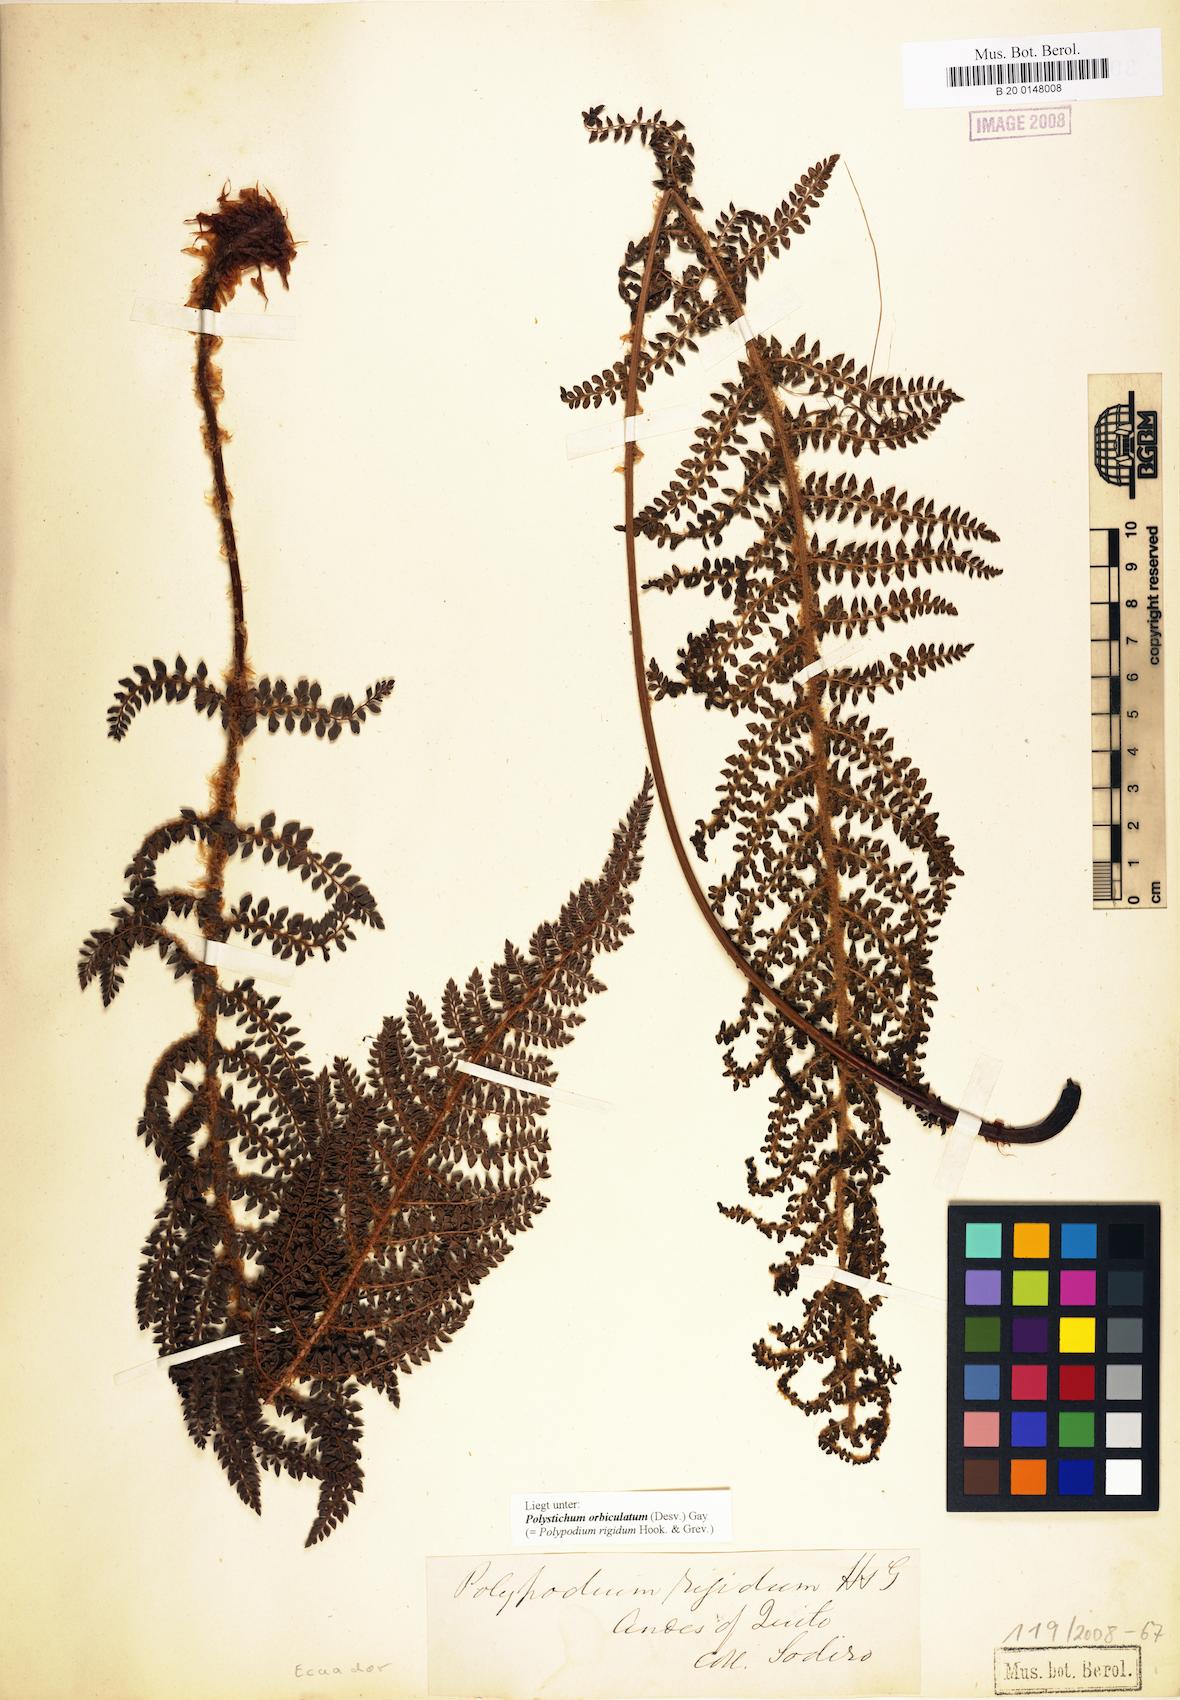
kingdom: Plantae
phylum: Tracheophyta
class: Polypodiopsida
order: Polypodiales
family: Dryopteridaceae
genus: Polystichum
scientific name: Polystichum orbiculatum
